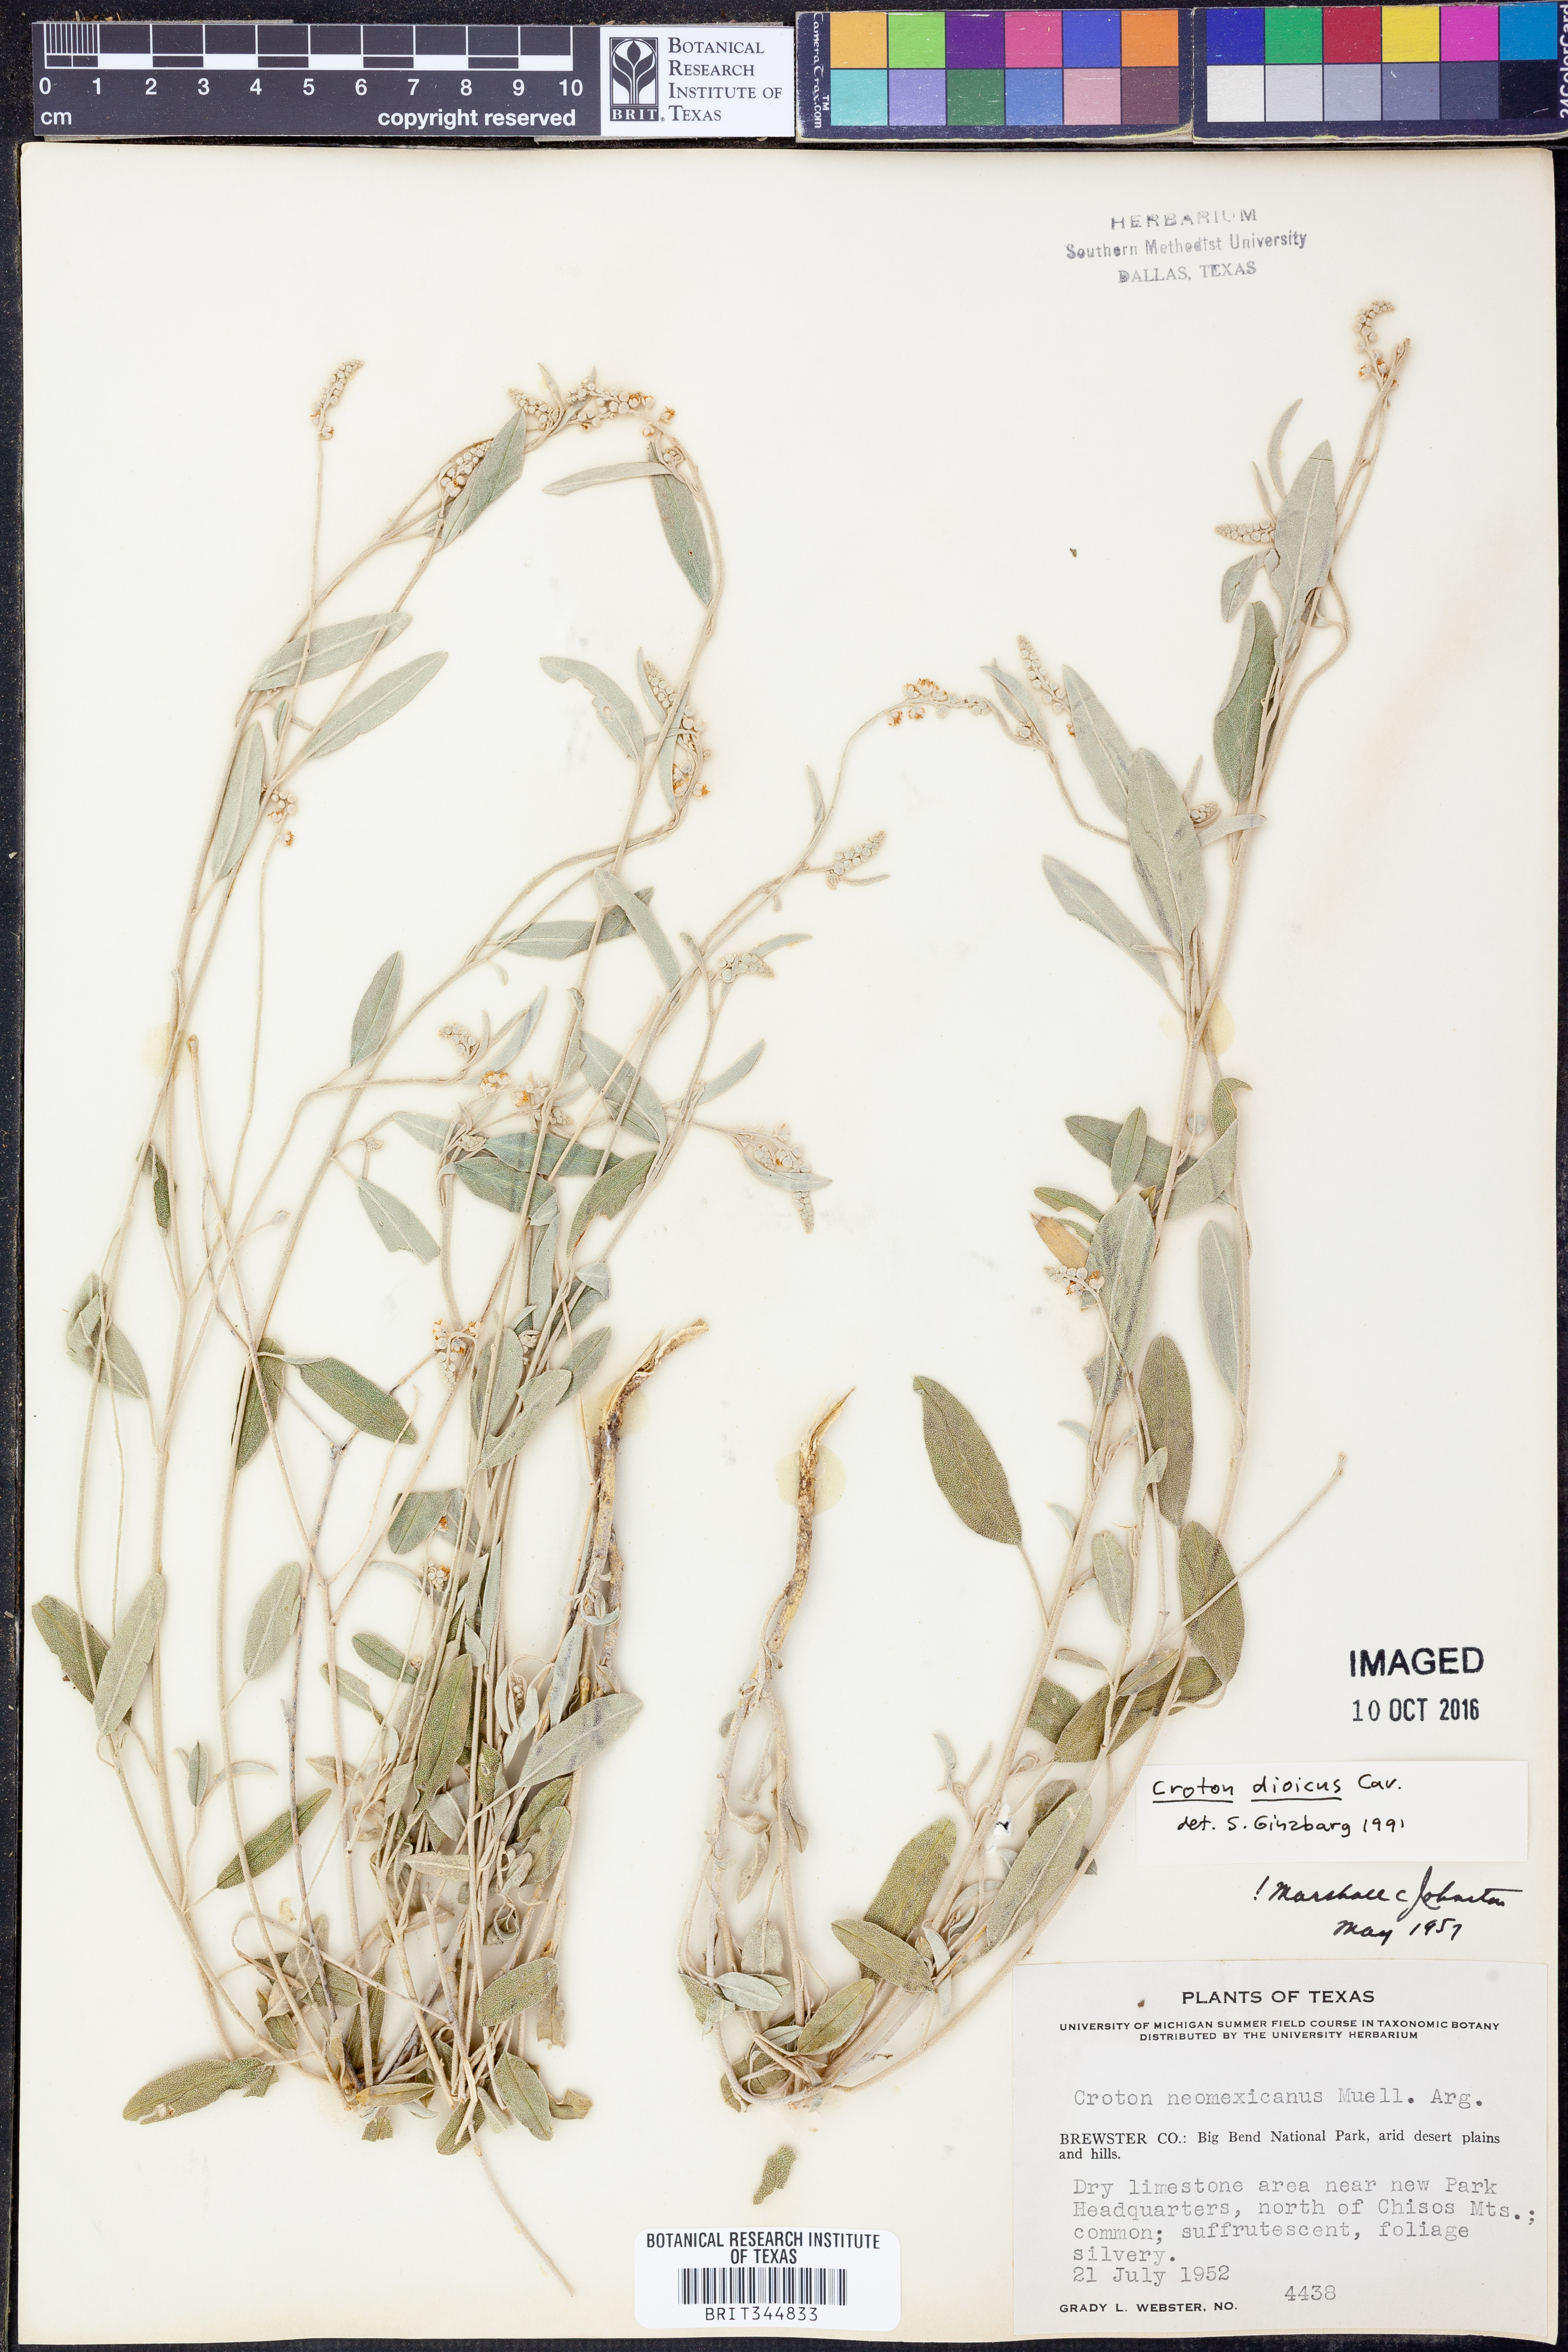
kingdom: Plantae
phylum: Tracheophyta
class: Magnoliopsida
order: Malpighiales
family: Euphorbiaceae
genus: Croton
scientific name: Croton dioicus
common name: Grassland croton
